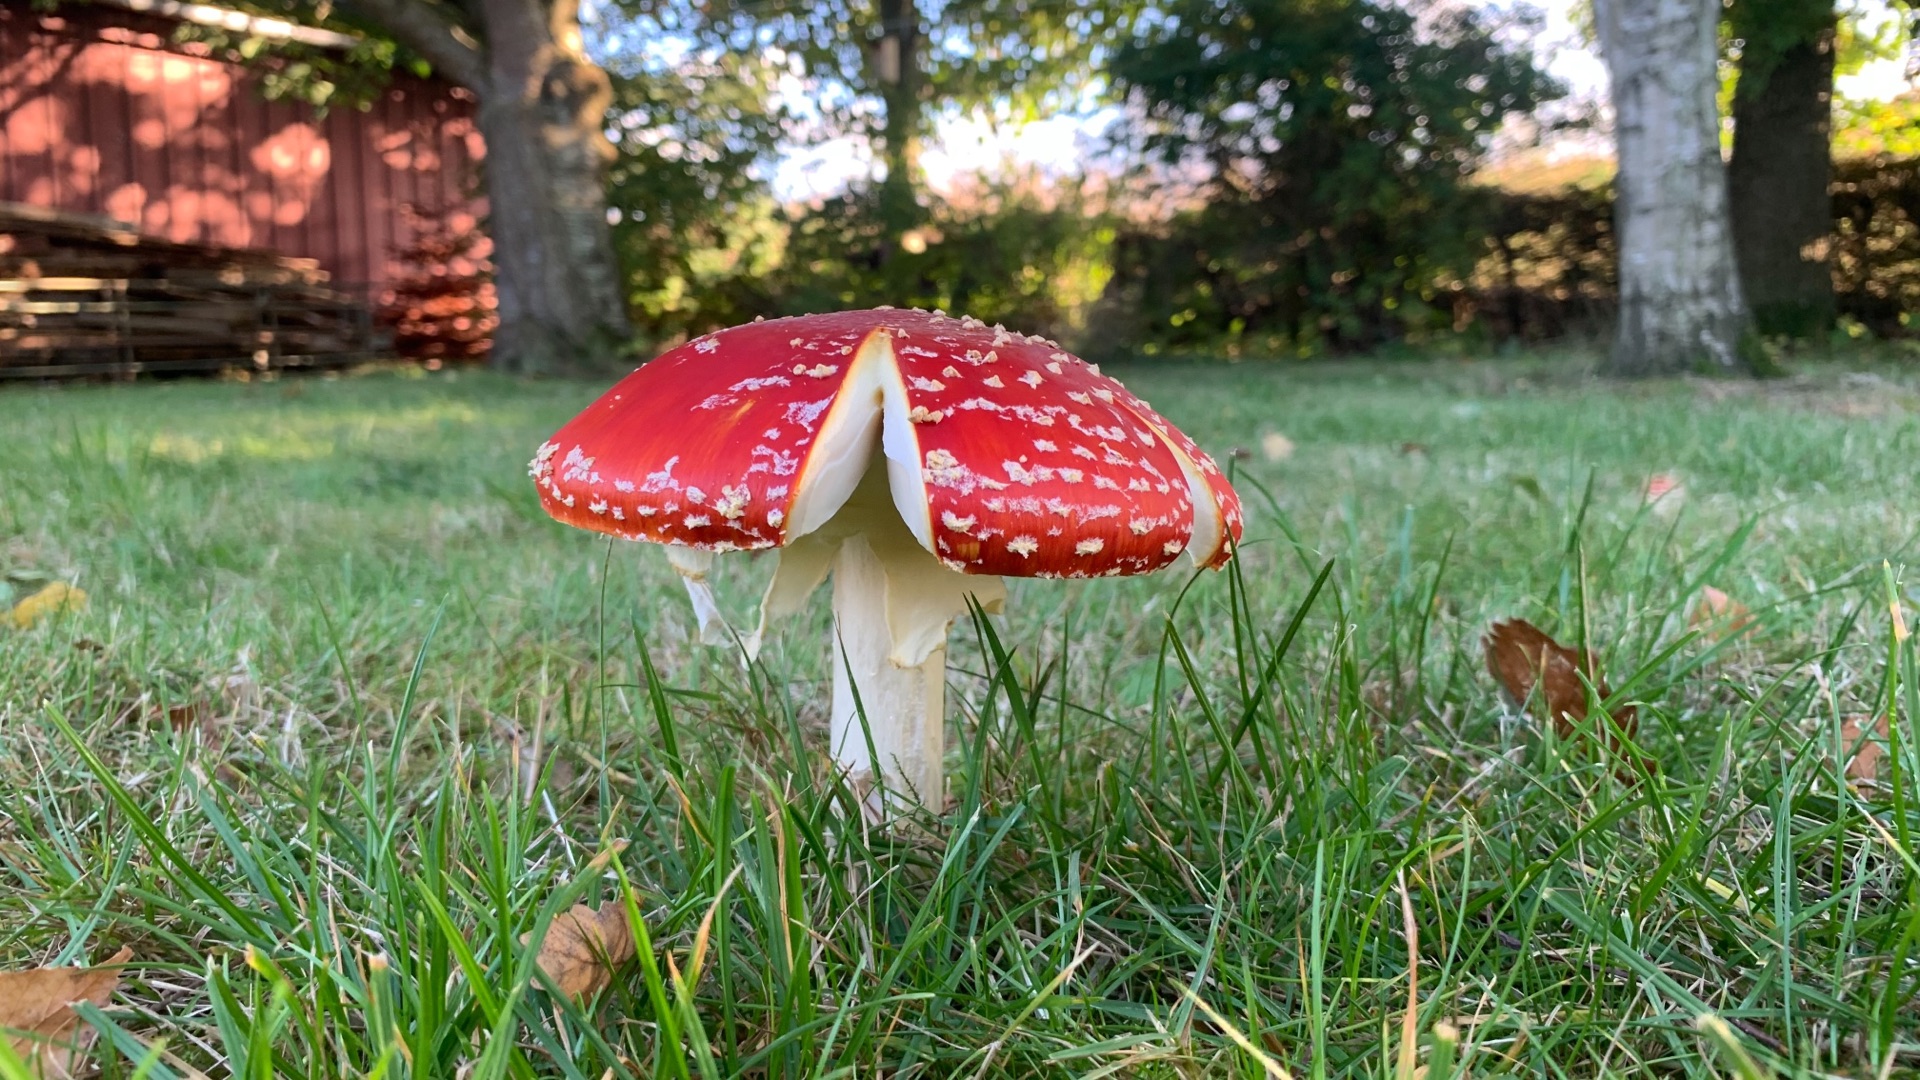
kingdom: Fungi
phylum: Basidiomycota
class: Agaricomycetes
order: Agaricales
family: Amanitaceae
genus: Amanita
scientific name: Amanita muscaria
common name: Rød fluesvamp
